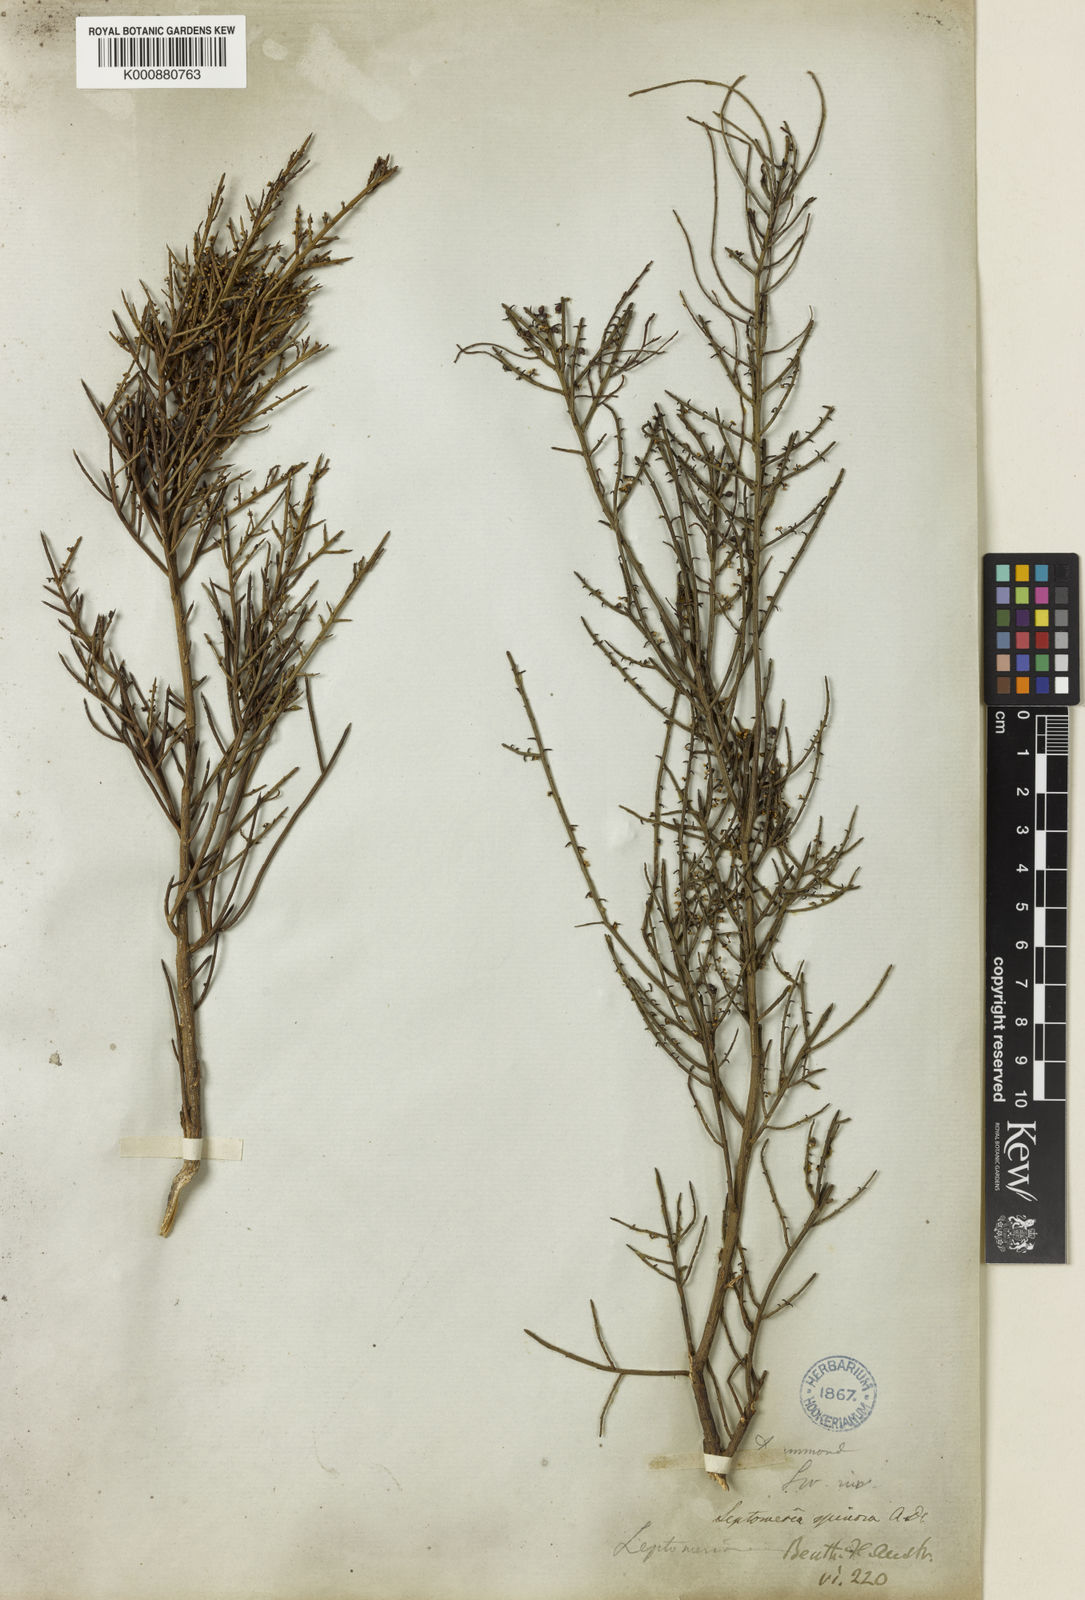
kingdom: Plantae
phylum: Tracheophyta
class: Magnoliopsida
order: Santalales
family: Amphorogynaceae
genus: Leptomeria
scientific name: Leptomeria spinosa
